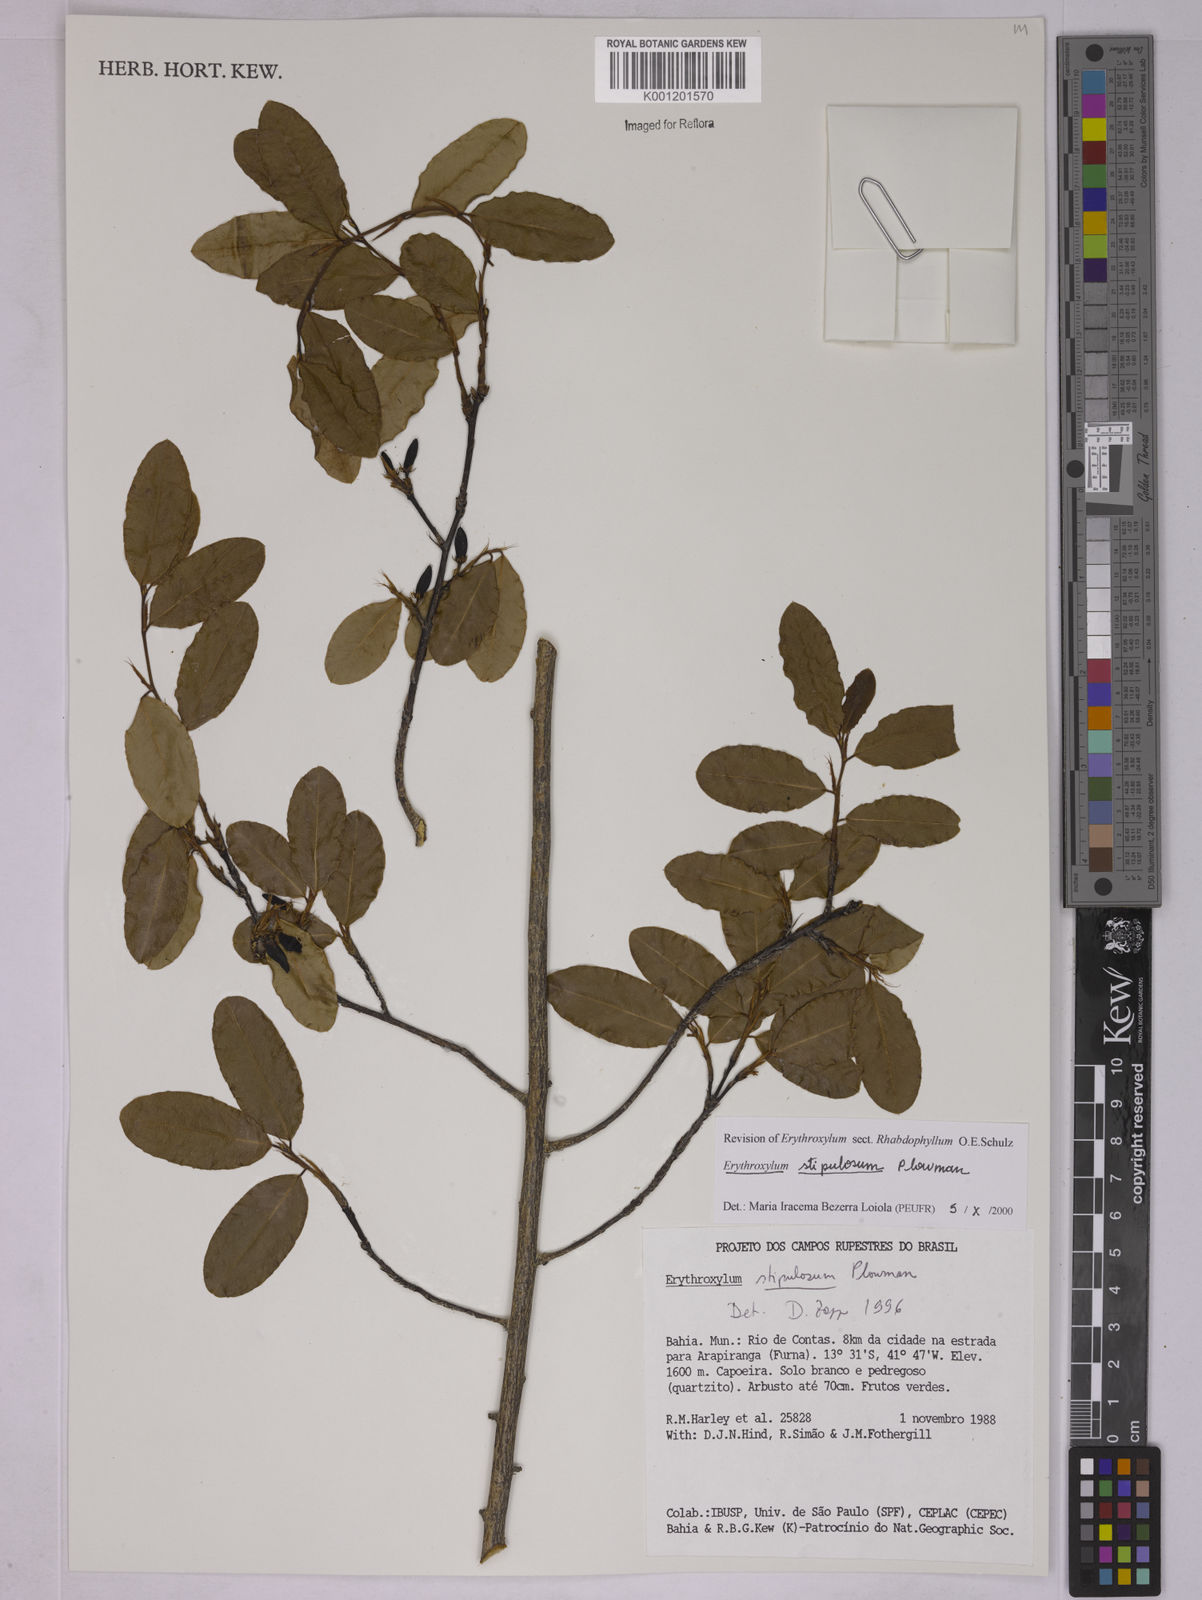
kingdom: Plantae
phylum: Tracheophyta
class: Magnoliopsida
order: Malpighiales
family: Erythroxylaceae
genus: Erythroxylum
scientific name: Erythroxylum stipulosum
